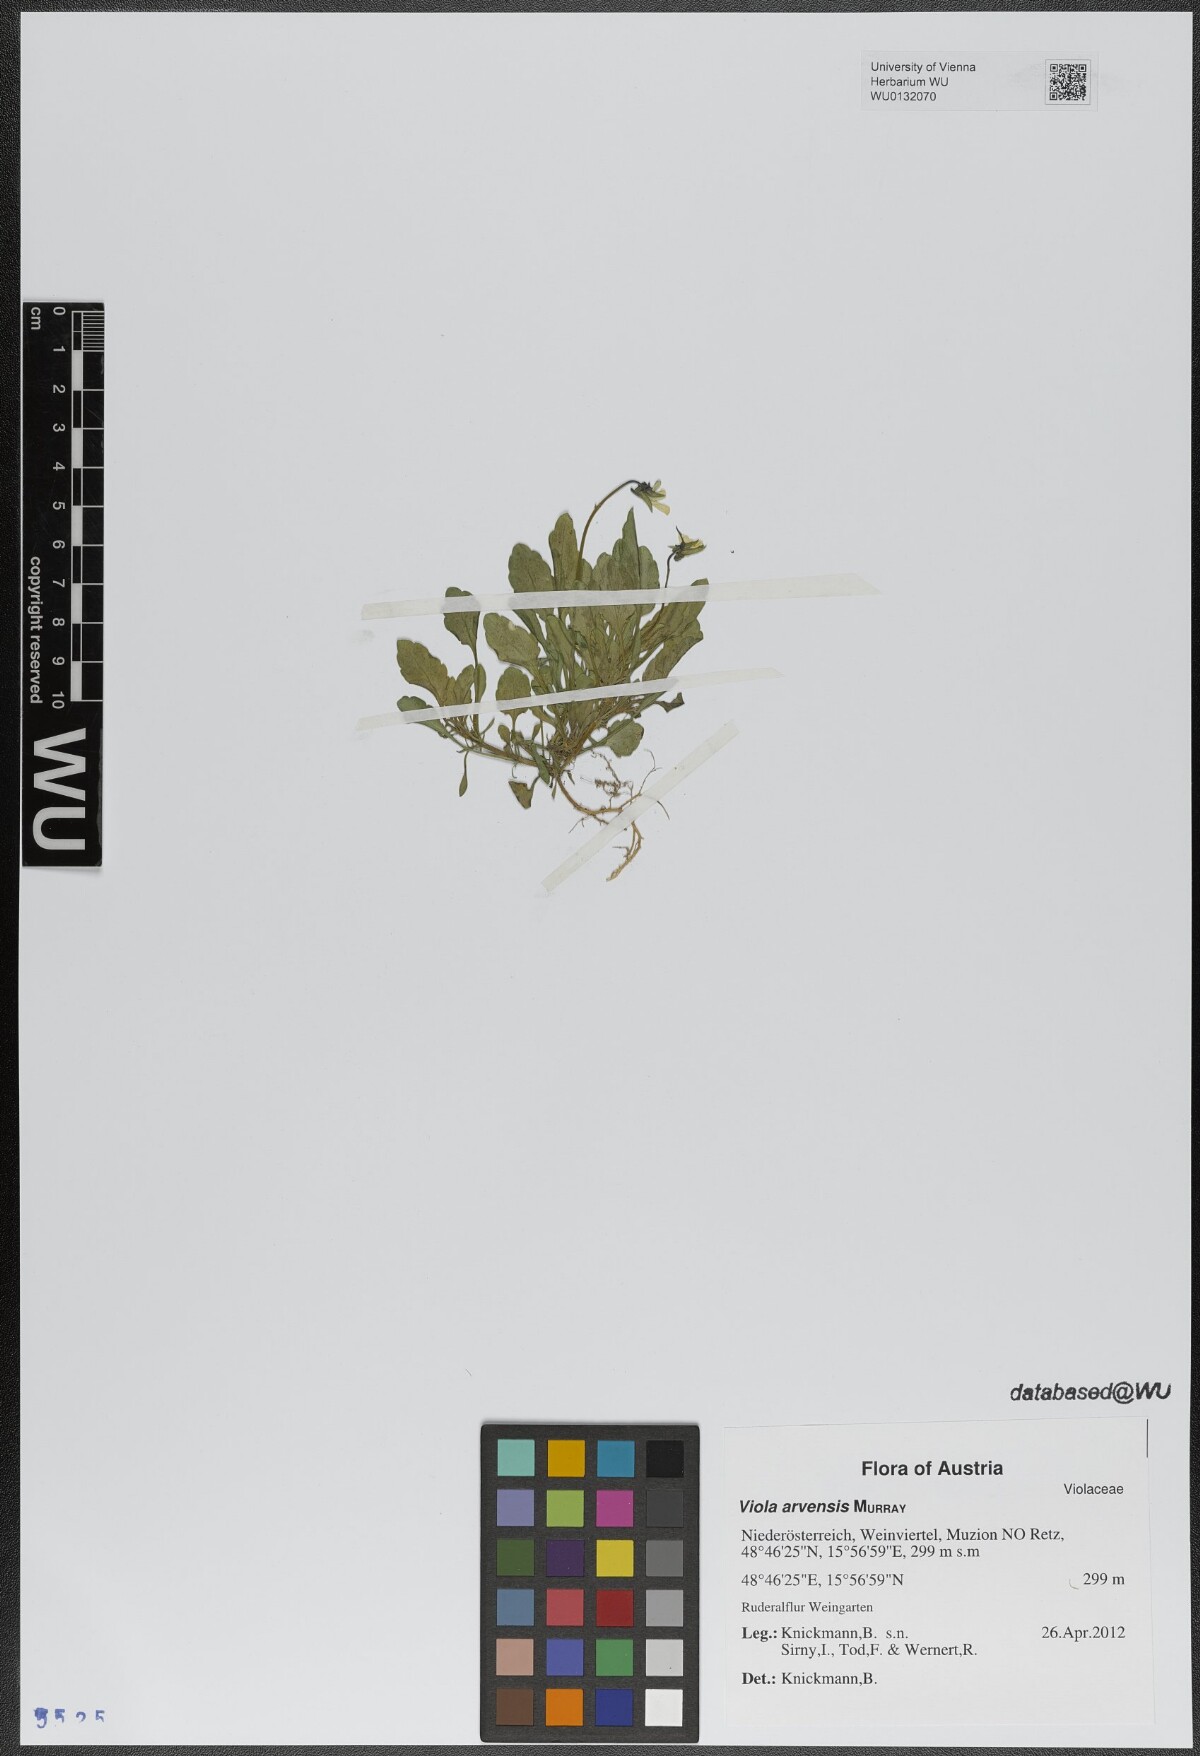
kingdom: Plantae
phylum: Tracheophyta
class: Magnoliopsida
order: Malpighiales
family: Violaceae
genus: Viola
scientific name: Viola arvensis
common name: Field pansy
